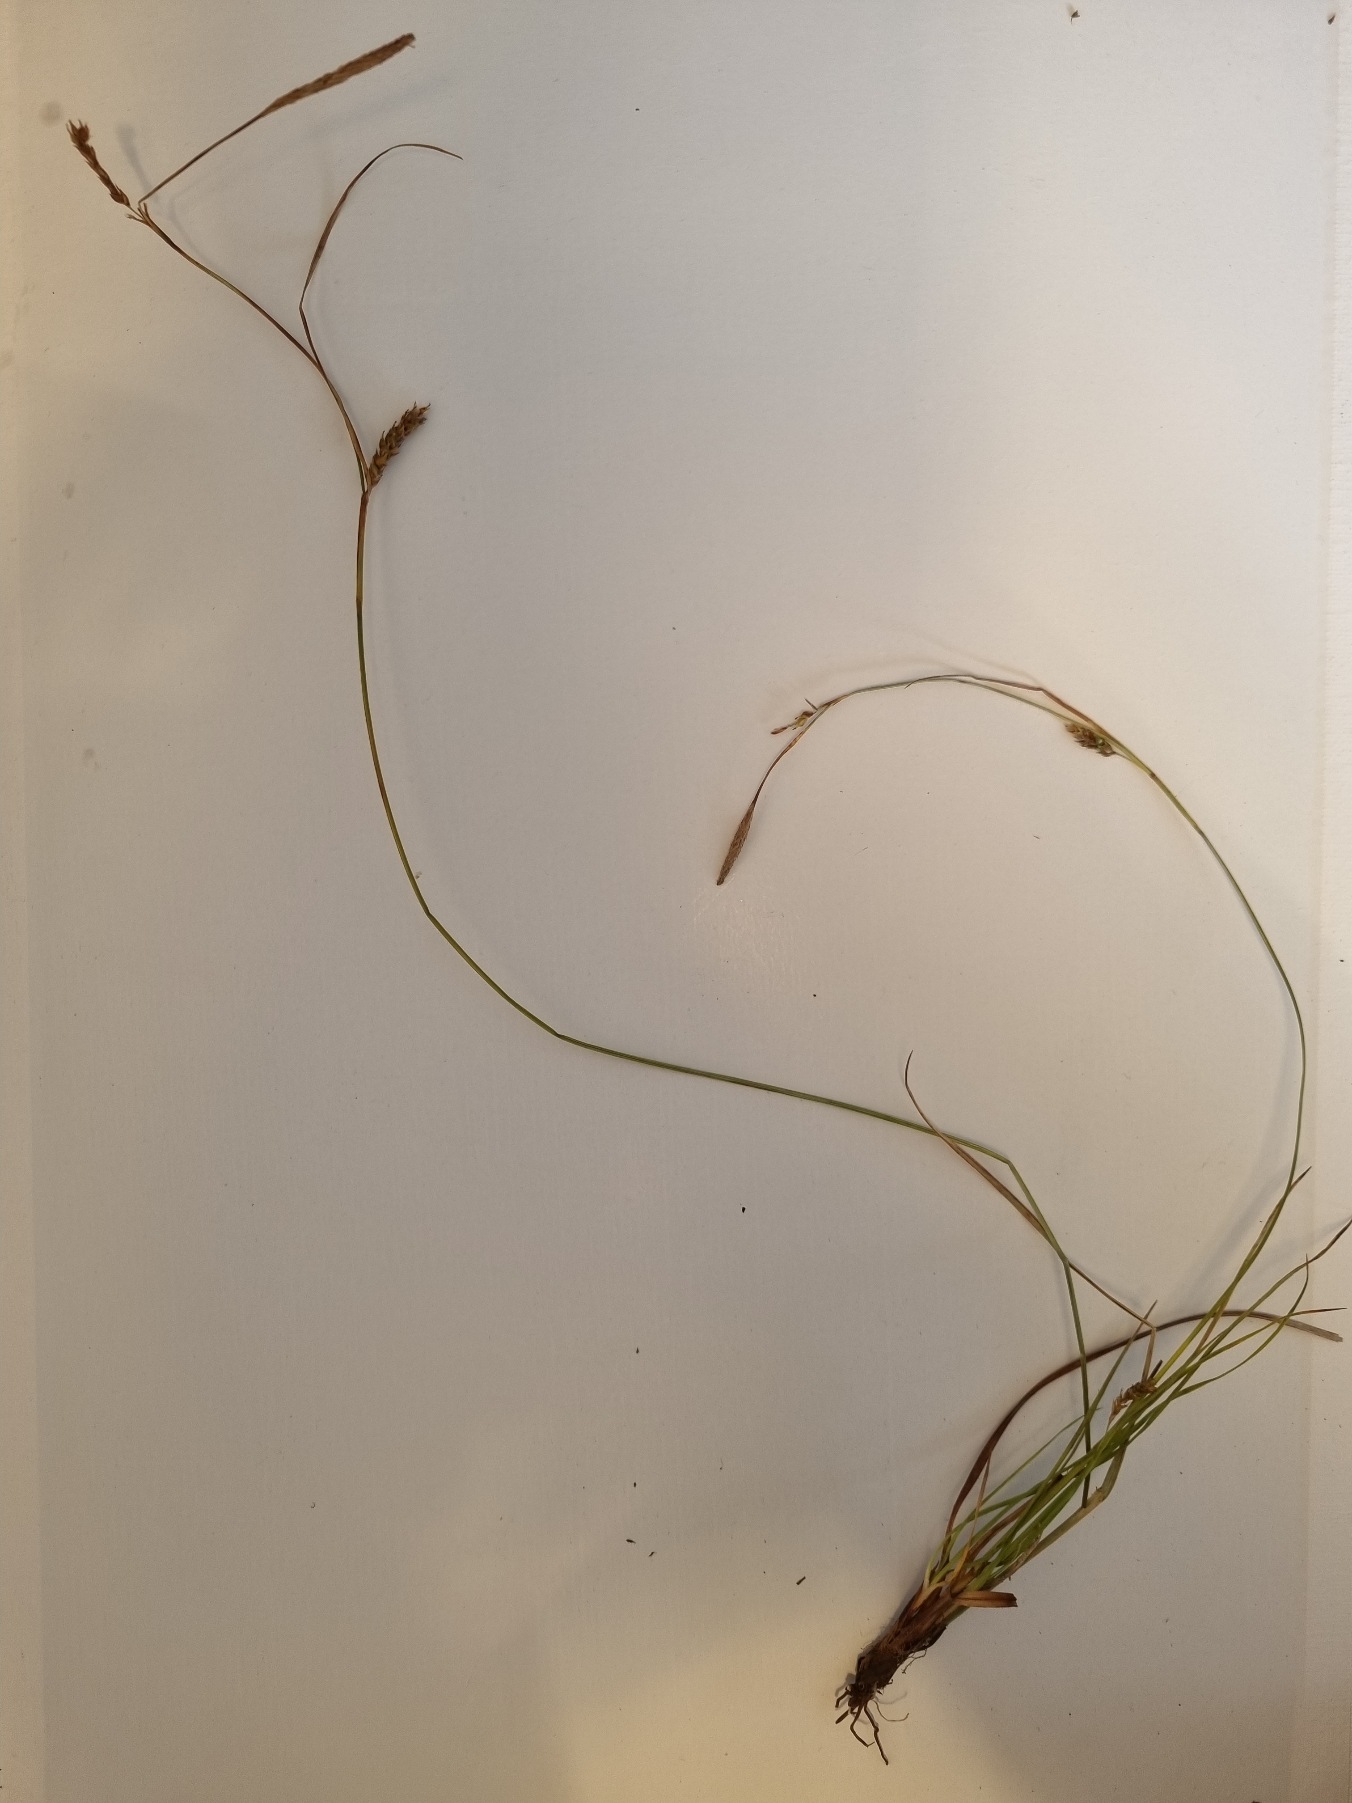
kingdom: Plantae
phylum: Tracheophyta
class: Liliopsida
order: Poales
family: Cyperaceae
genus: Carex
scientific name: Carex distans
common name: Fjernakset star
